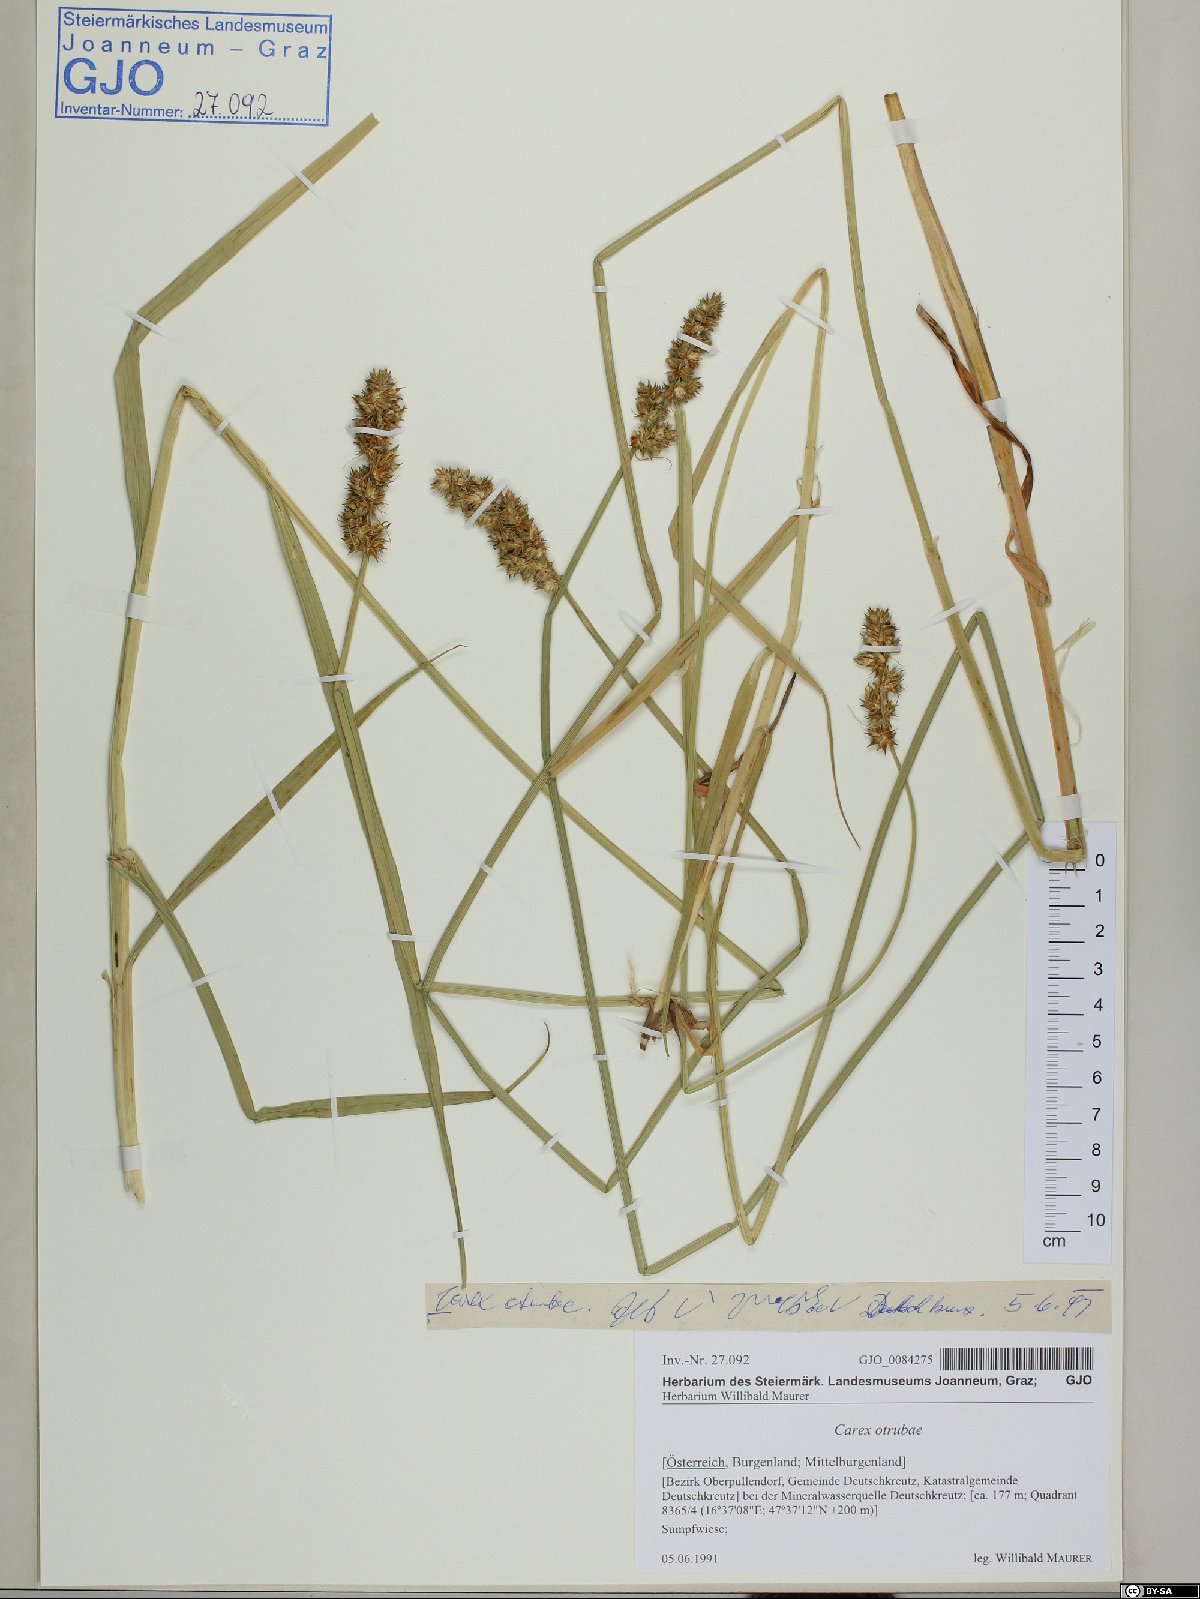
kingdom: Plantae
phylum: Tracheophyta
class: Liliopsida
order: Poales
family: Cyperaceae
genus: Carex
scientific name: Carex otrubae
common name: False fox-sedge
